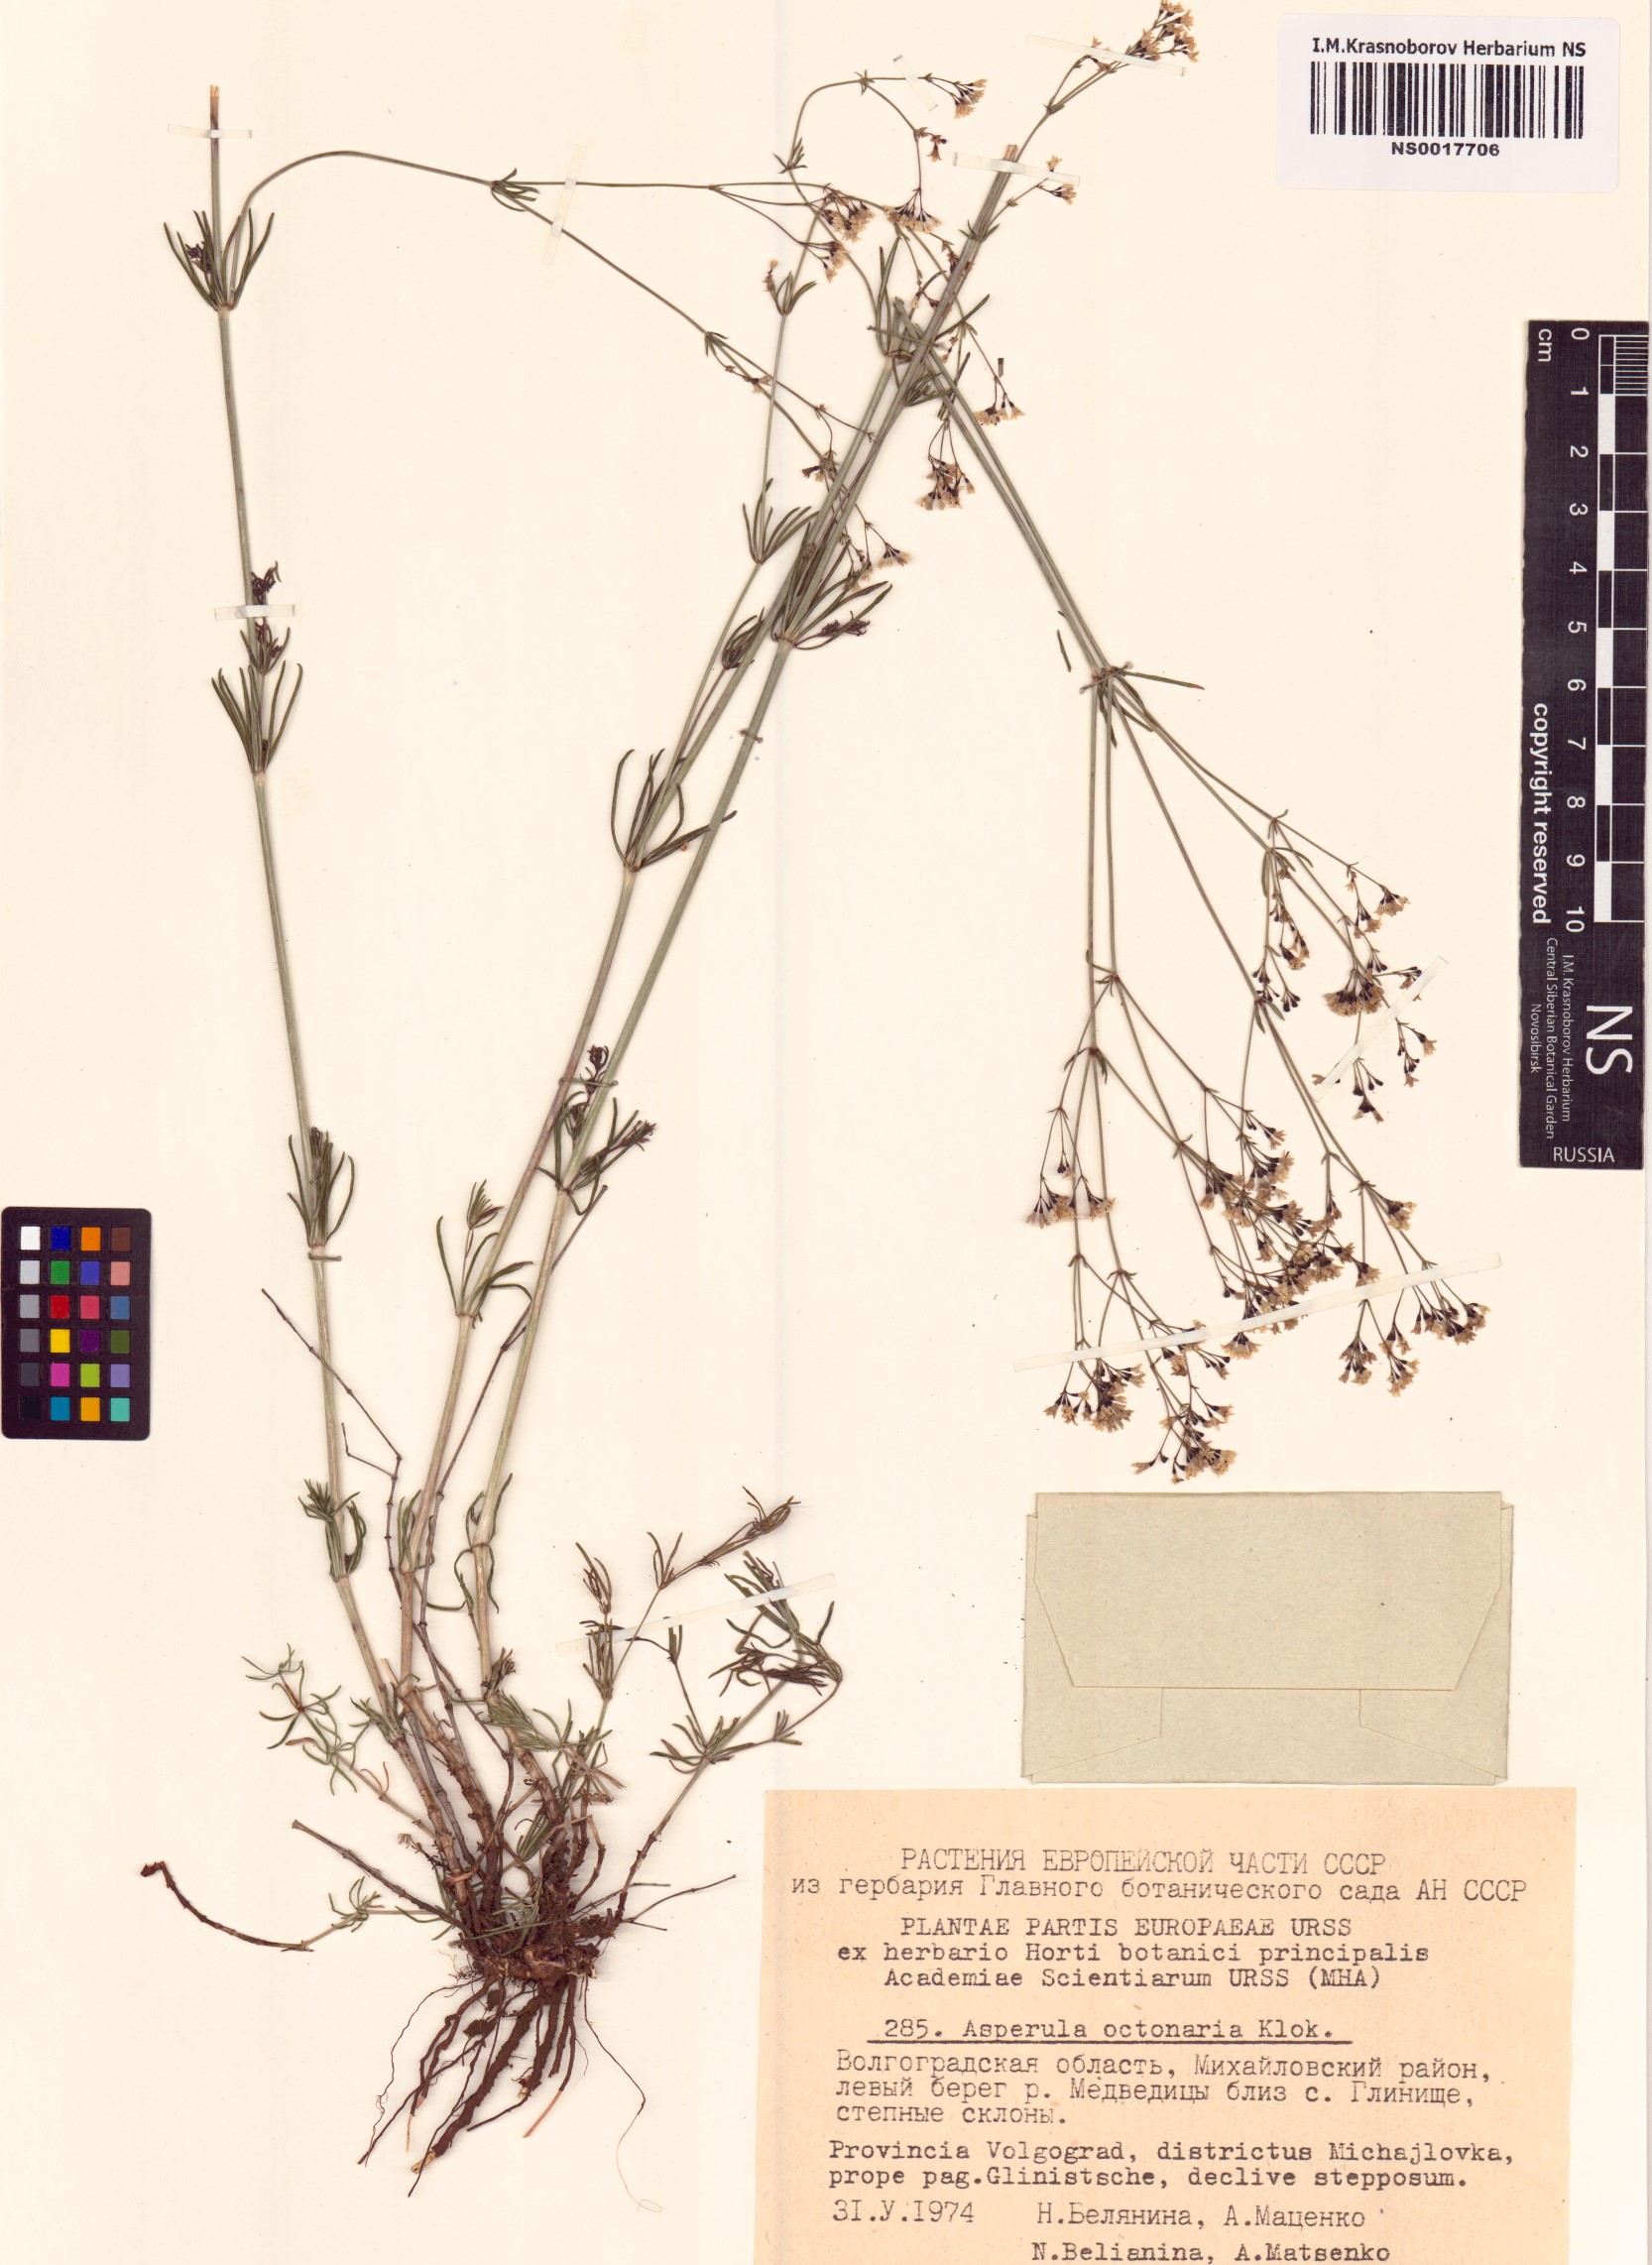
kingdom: Plantae
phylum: Tracheophyta
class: Magnoliopsida
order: Gentianales
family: Rubiaceae
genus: Galium
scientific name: Galium octonarium
